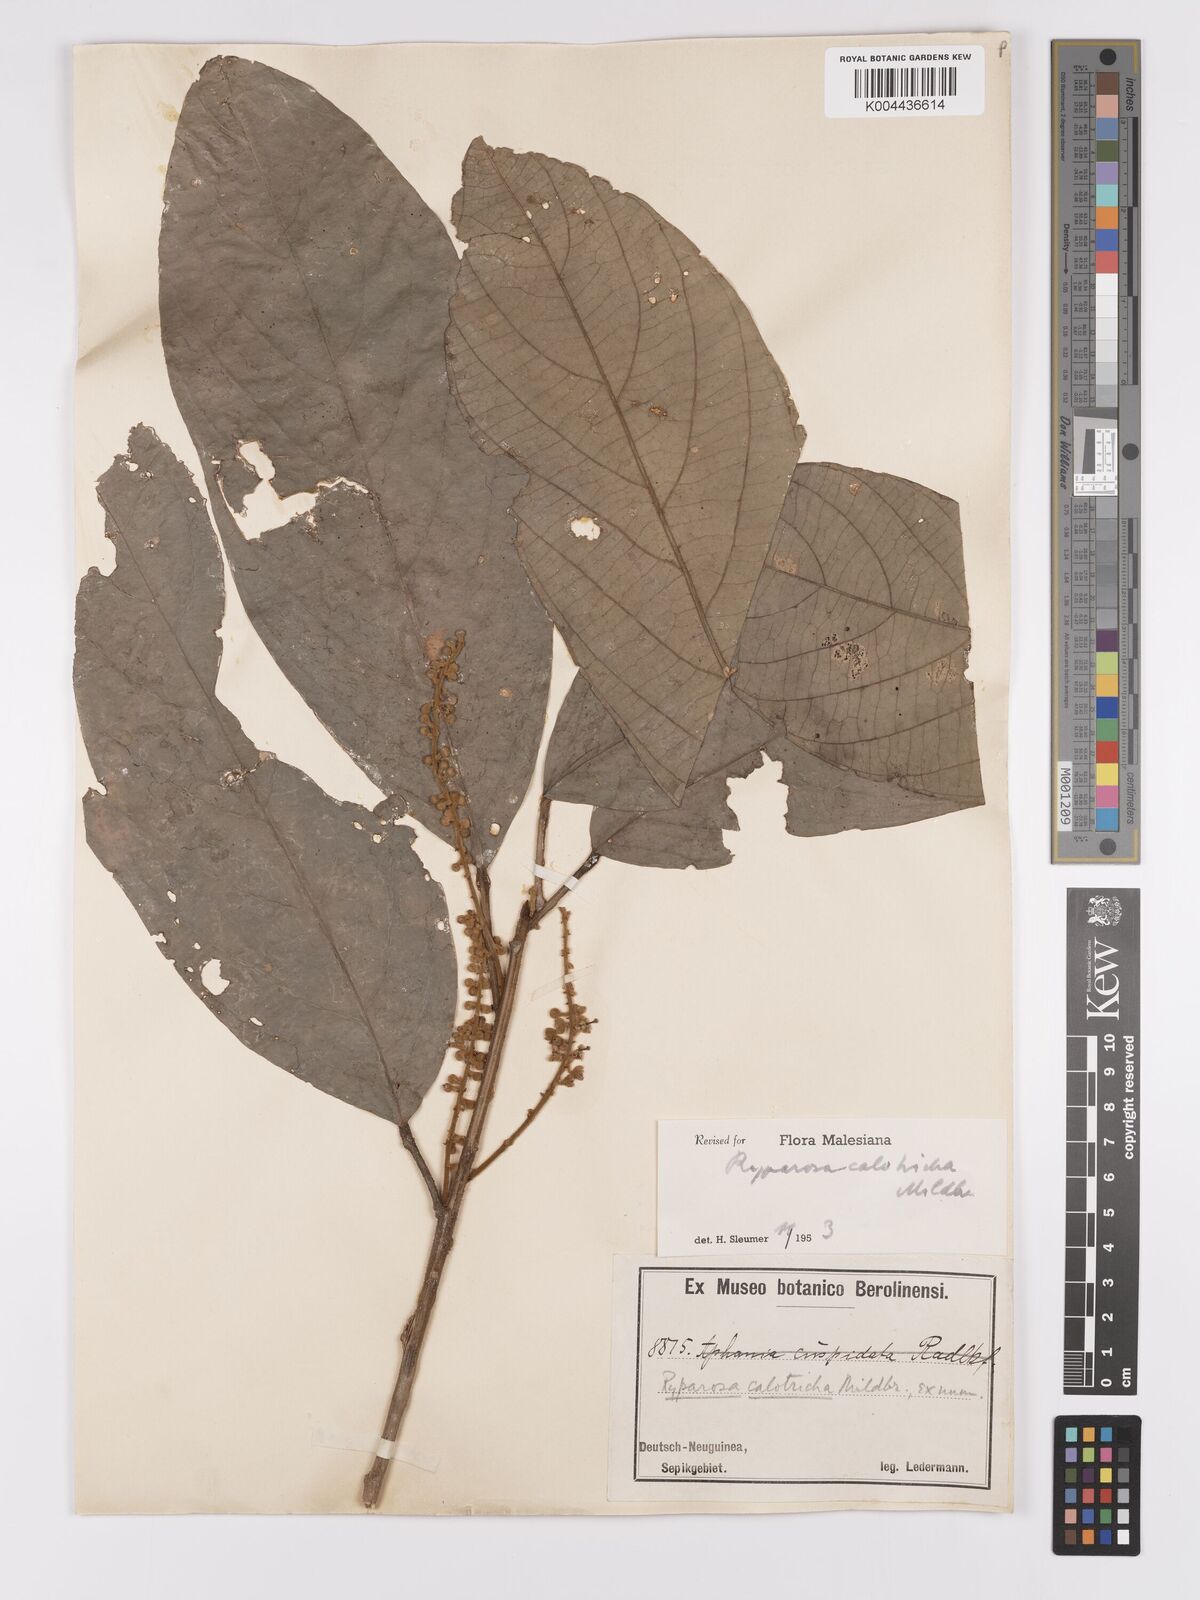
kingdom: Plantae
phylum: Tracheophyta
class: Magnoliopsida
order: Malpighiales
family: Achariaceae
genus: Ryparosa
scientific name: Ryparosa calotricha
